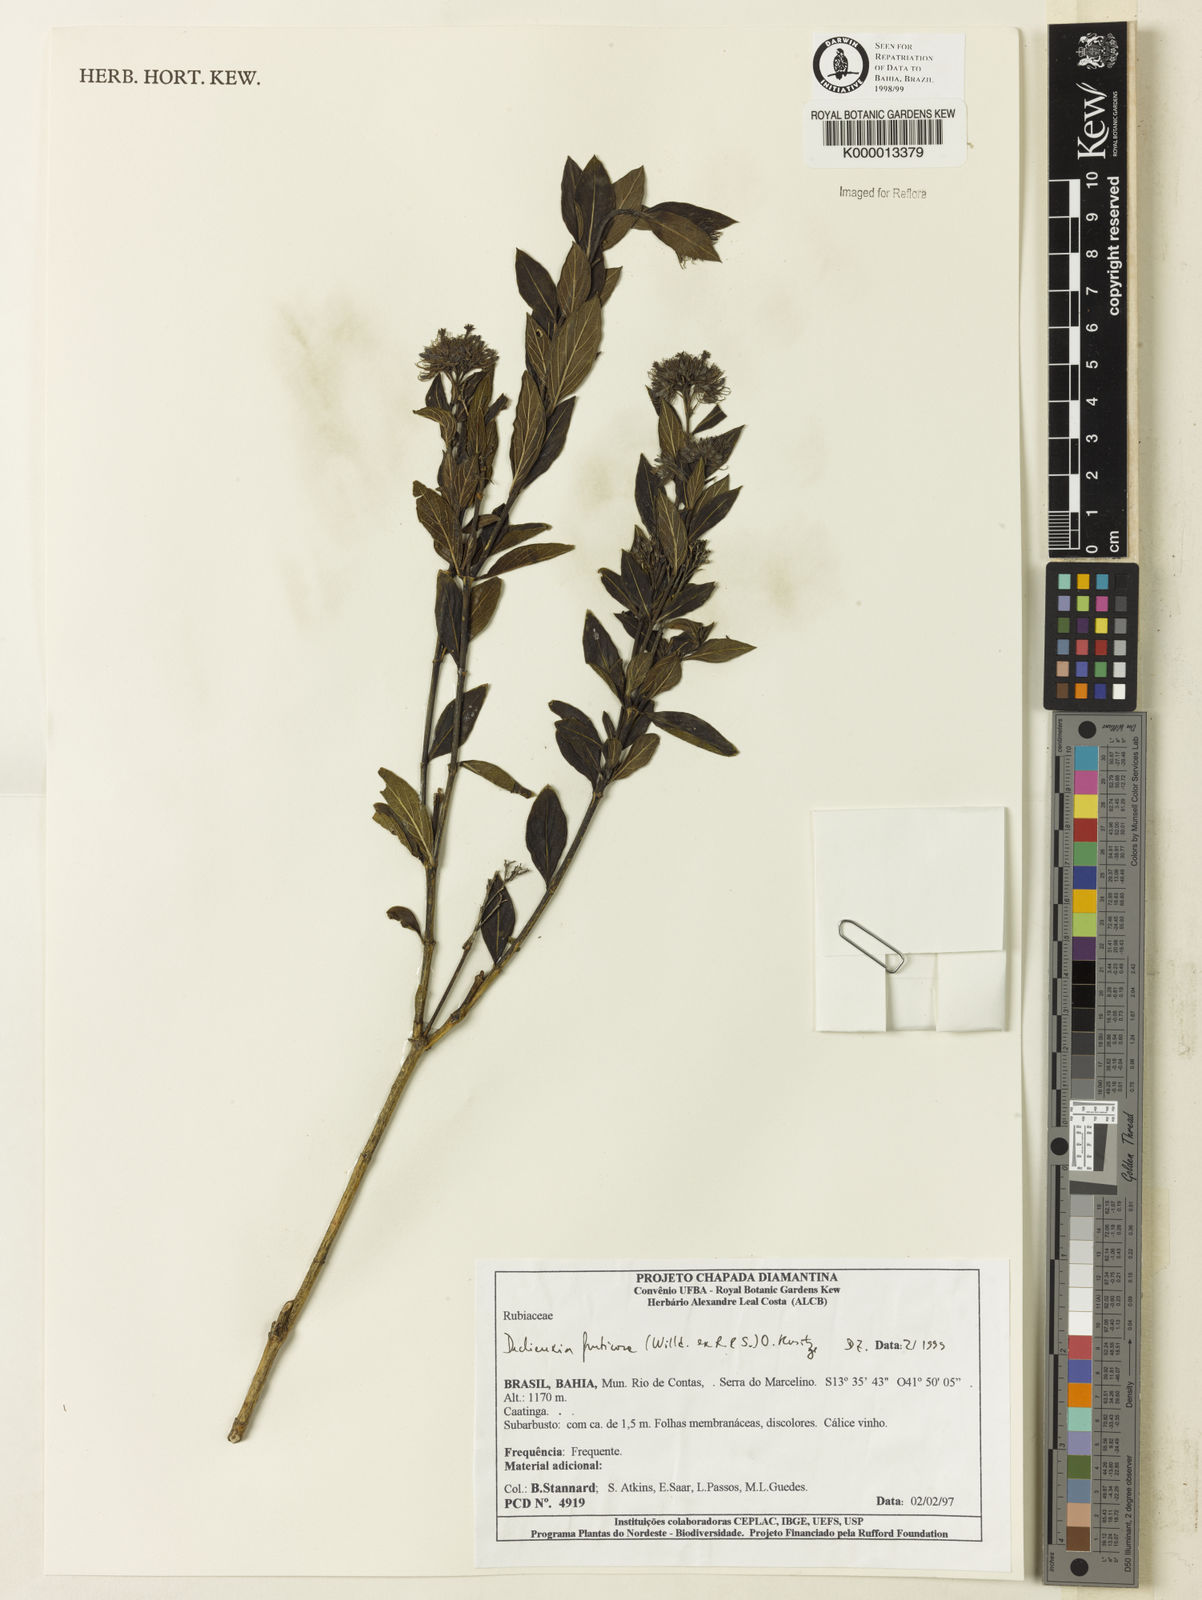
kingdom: Plantae
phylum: Tracheophyta
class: Magnoliopsida
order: Gentianales
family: Rubiaceae
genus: Declieuxia
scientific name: Declieuxia fruticosa
